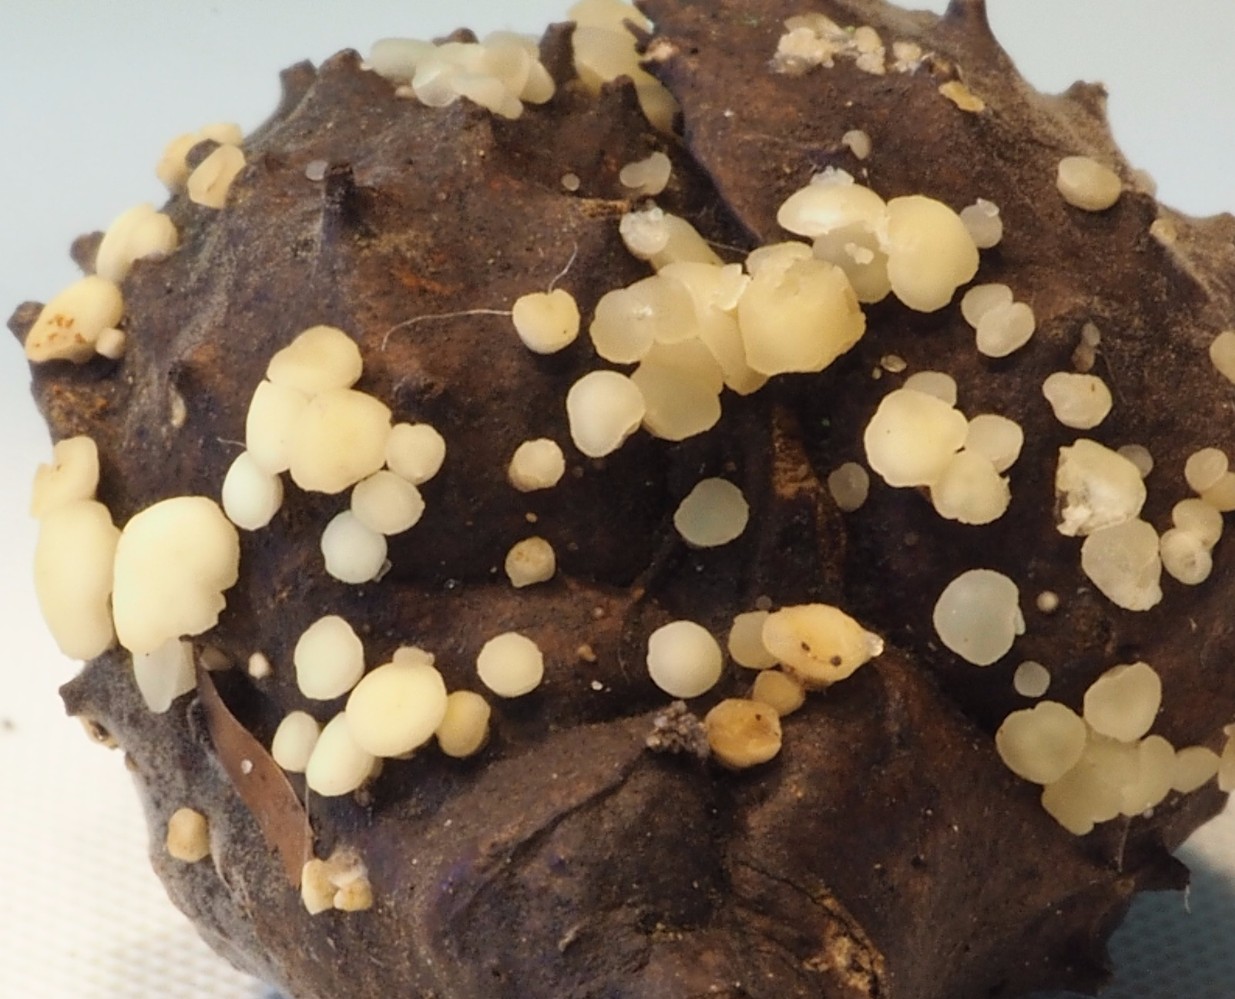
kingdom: Fungi
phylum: Ascomycota
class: Leotiomycetes
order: Helotiales
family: Helotiaceae
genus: Hymenoscyphus
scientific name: Hymenoscyphus fagineus
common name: vellugtende stilkskive
